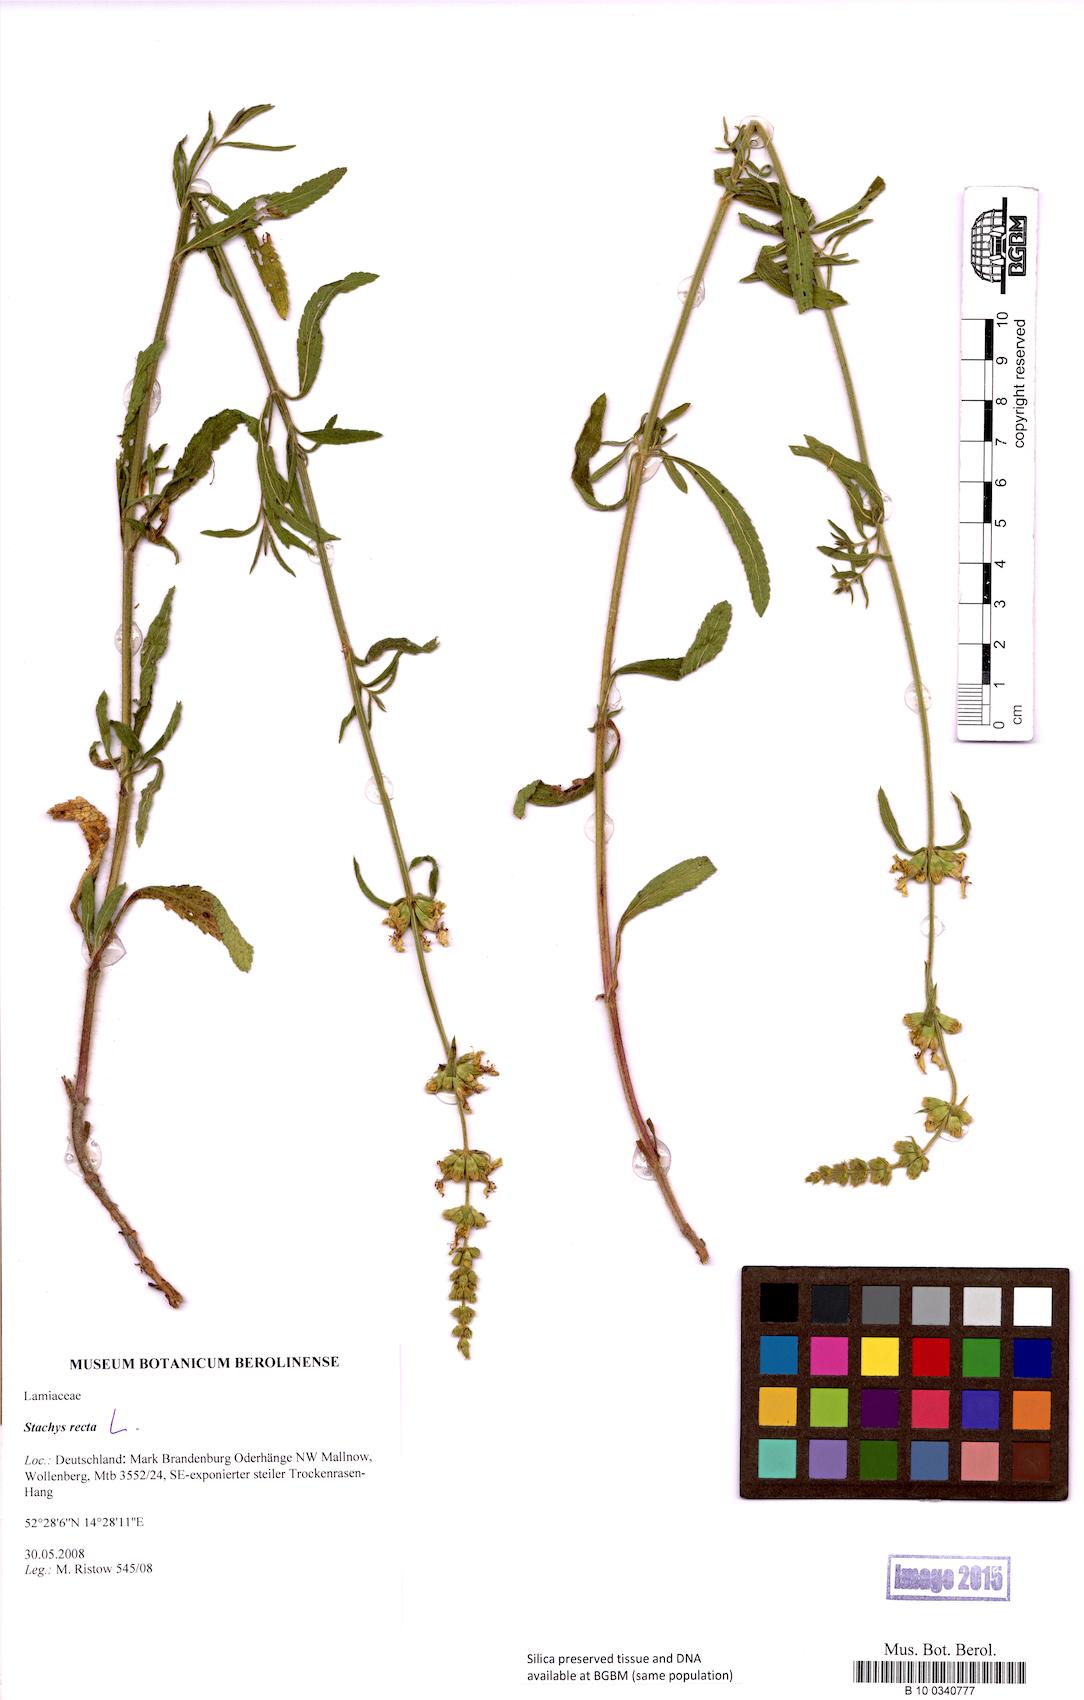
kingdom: Plantae
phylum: Tracheophyta
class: Magnoliopsida
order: Lamiales
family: Lamiaceae
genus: Stachys
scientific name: Stachys recta
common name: Perennial yellow-woundwort
